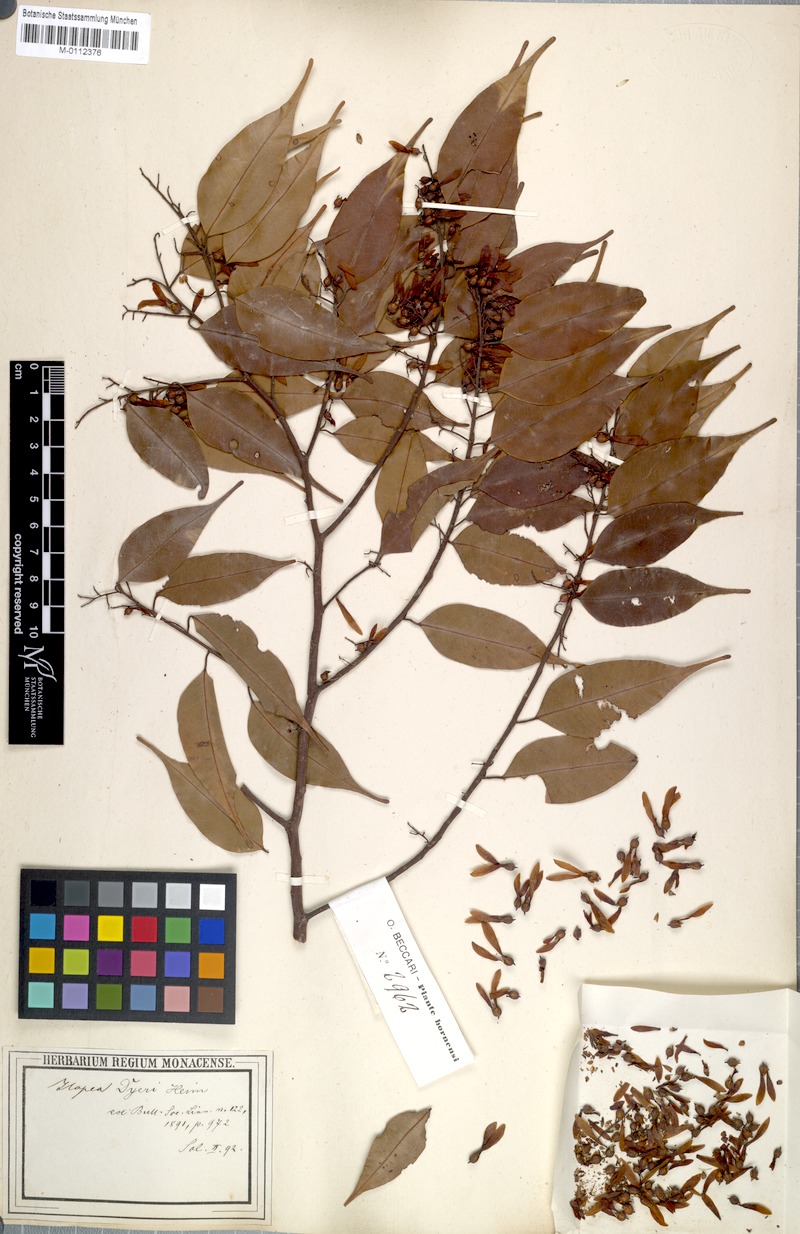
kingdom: Plantae
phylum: Tracheophyta
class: Magnoliopsida
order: Malvales
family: Dipterocarpaceae
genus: Hopea
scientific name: Hopea dyeri
